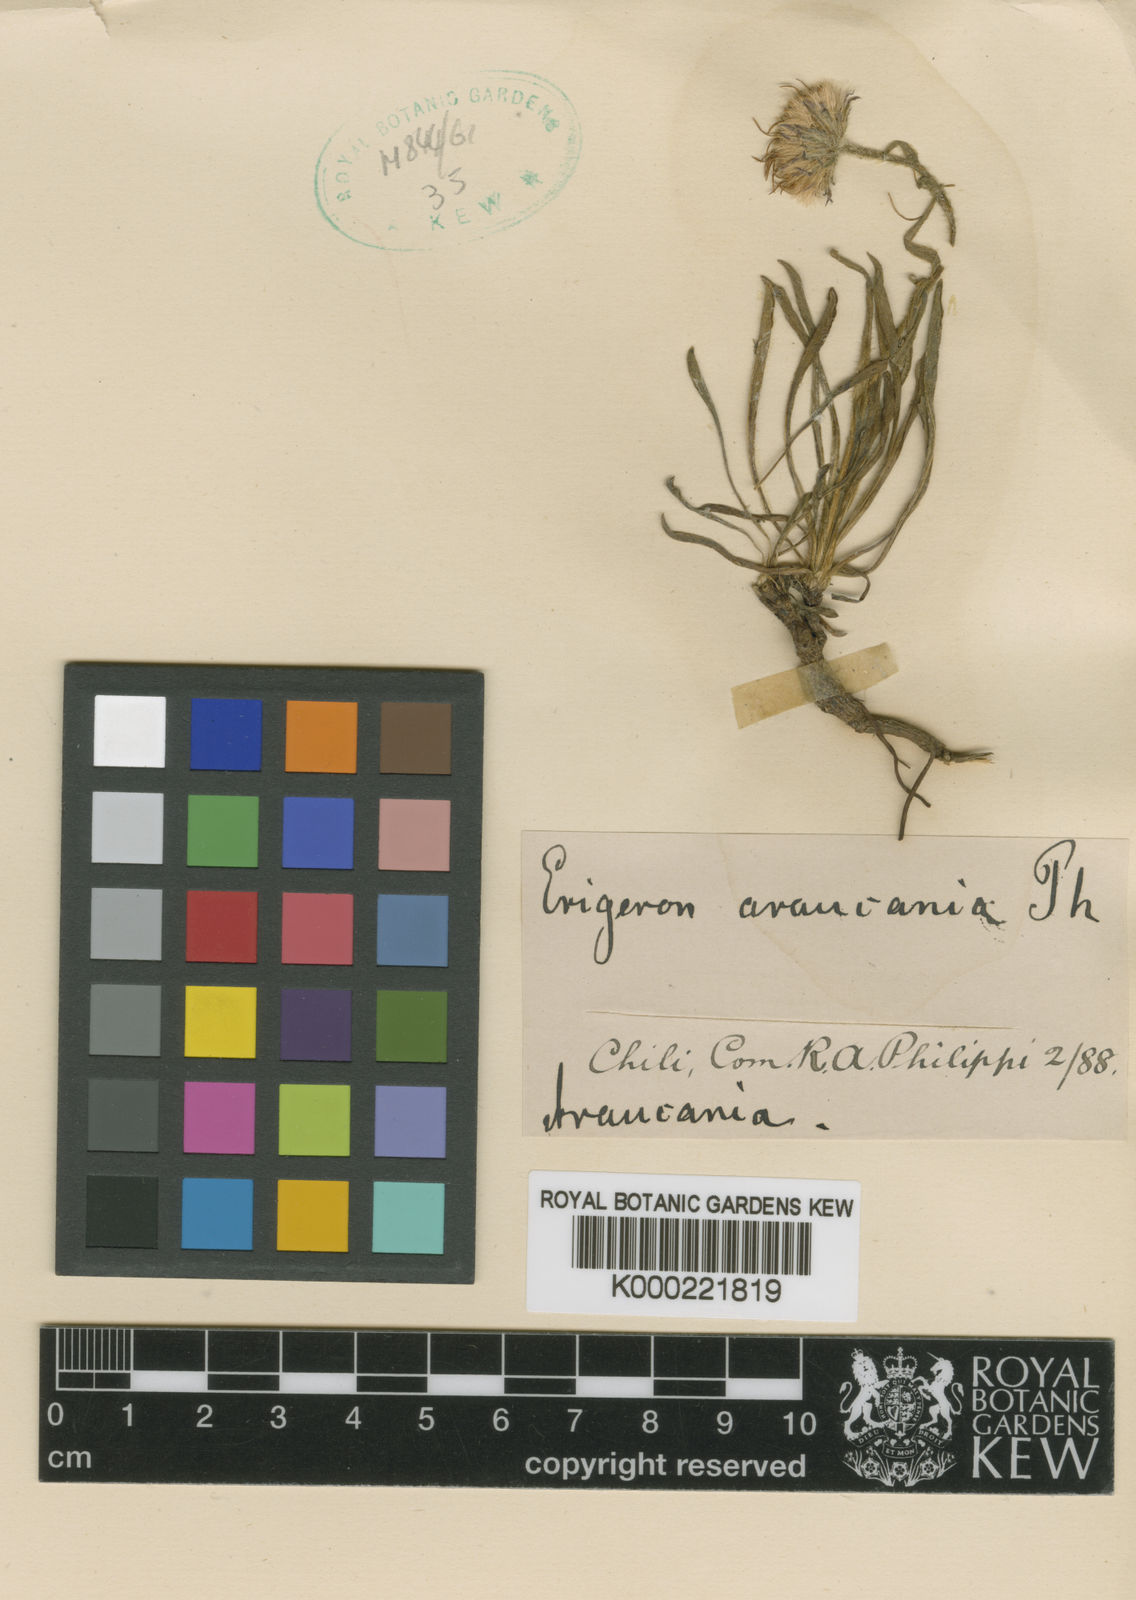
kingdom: Plantae
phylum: Tracheophyta
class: Magnoliopsida
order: Asterales
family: Asteraceae
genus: Erigeron
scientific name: Erigeron andicola
